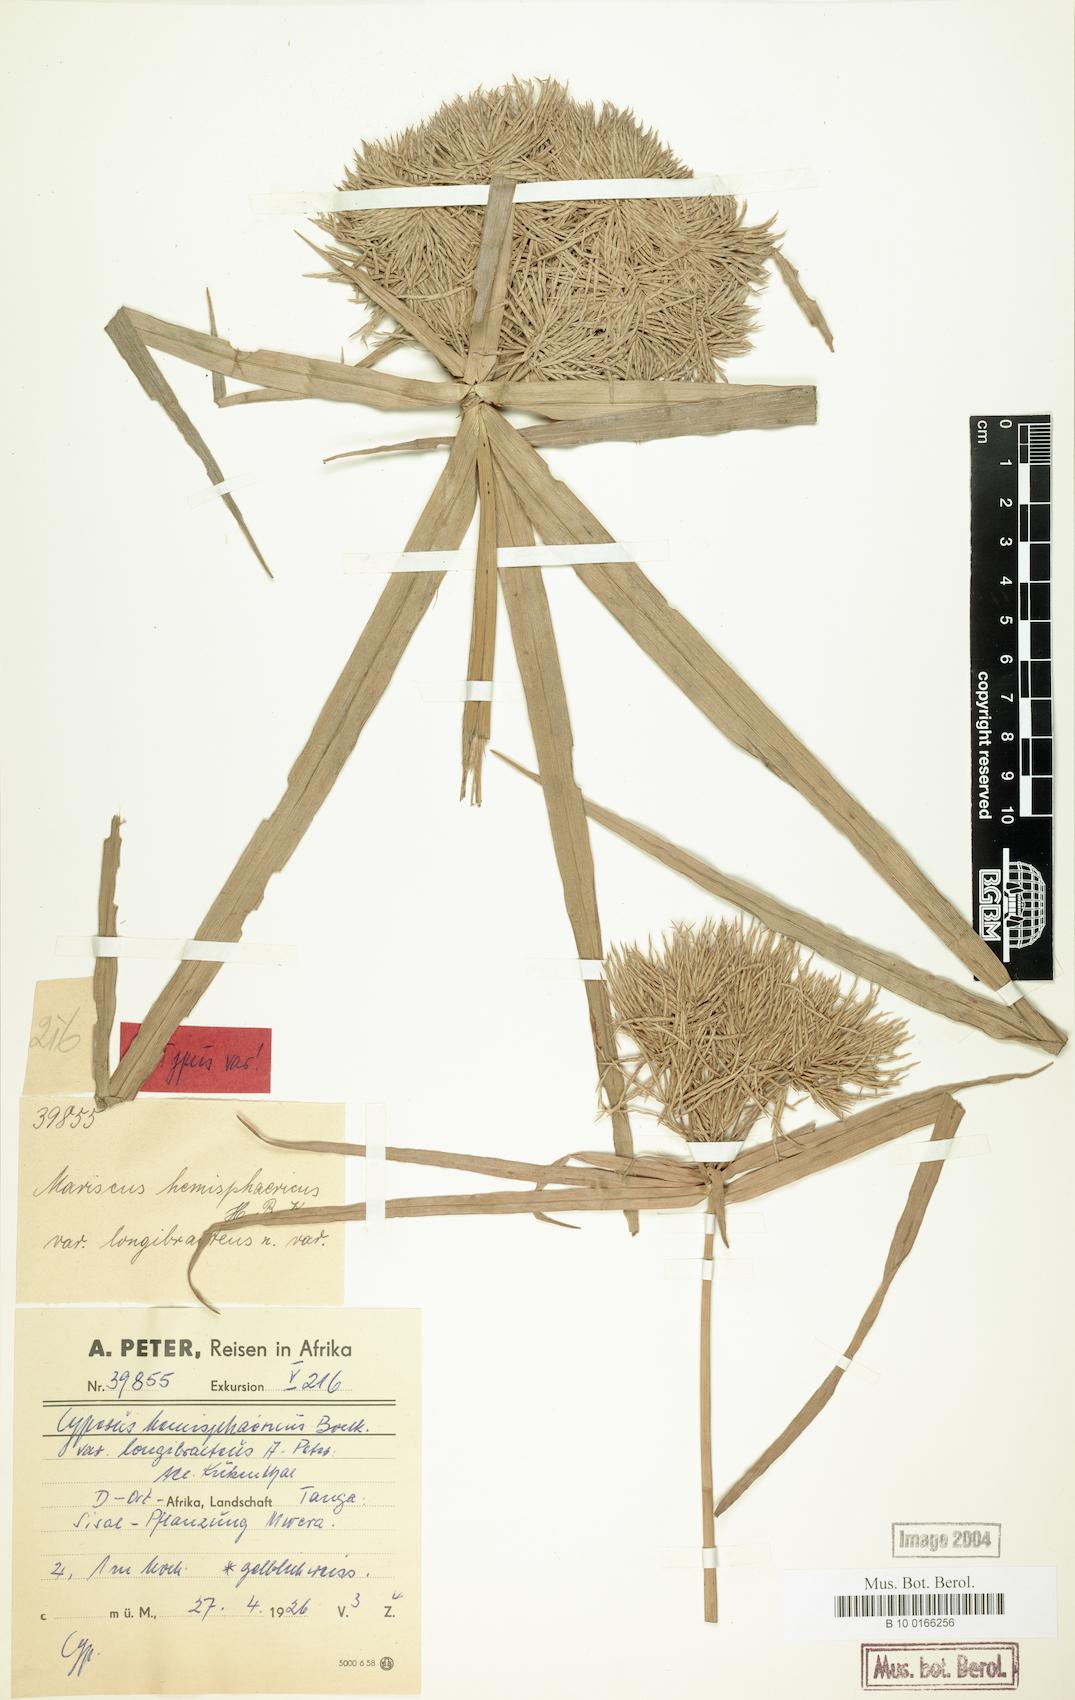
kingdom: Plantae
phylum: Tracheophyta
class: Liliopsida
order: Poales
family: Cyperaceae
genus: Cyperus
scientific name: Cyperus hemisphaericus
